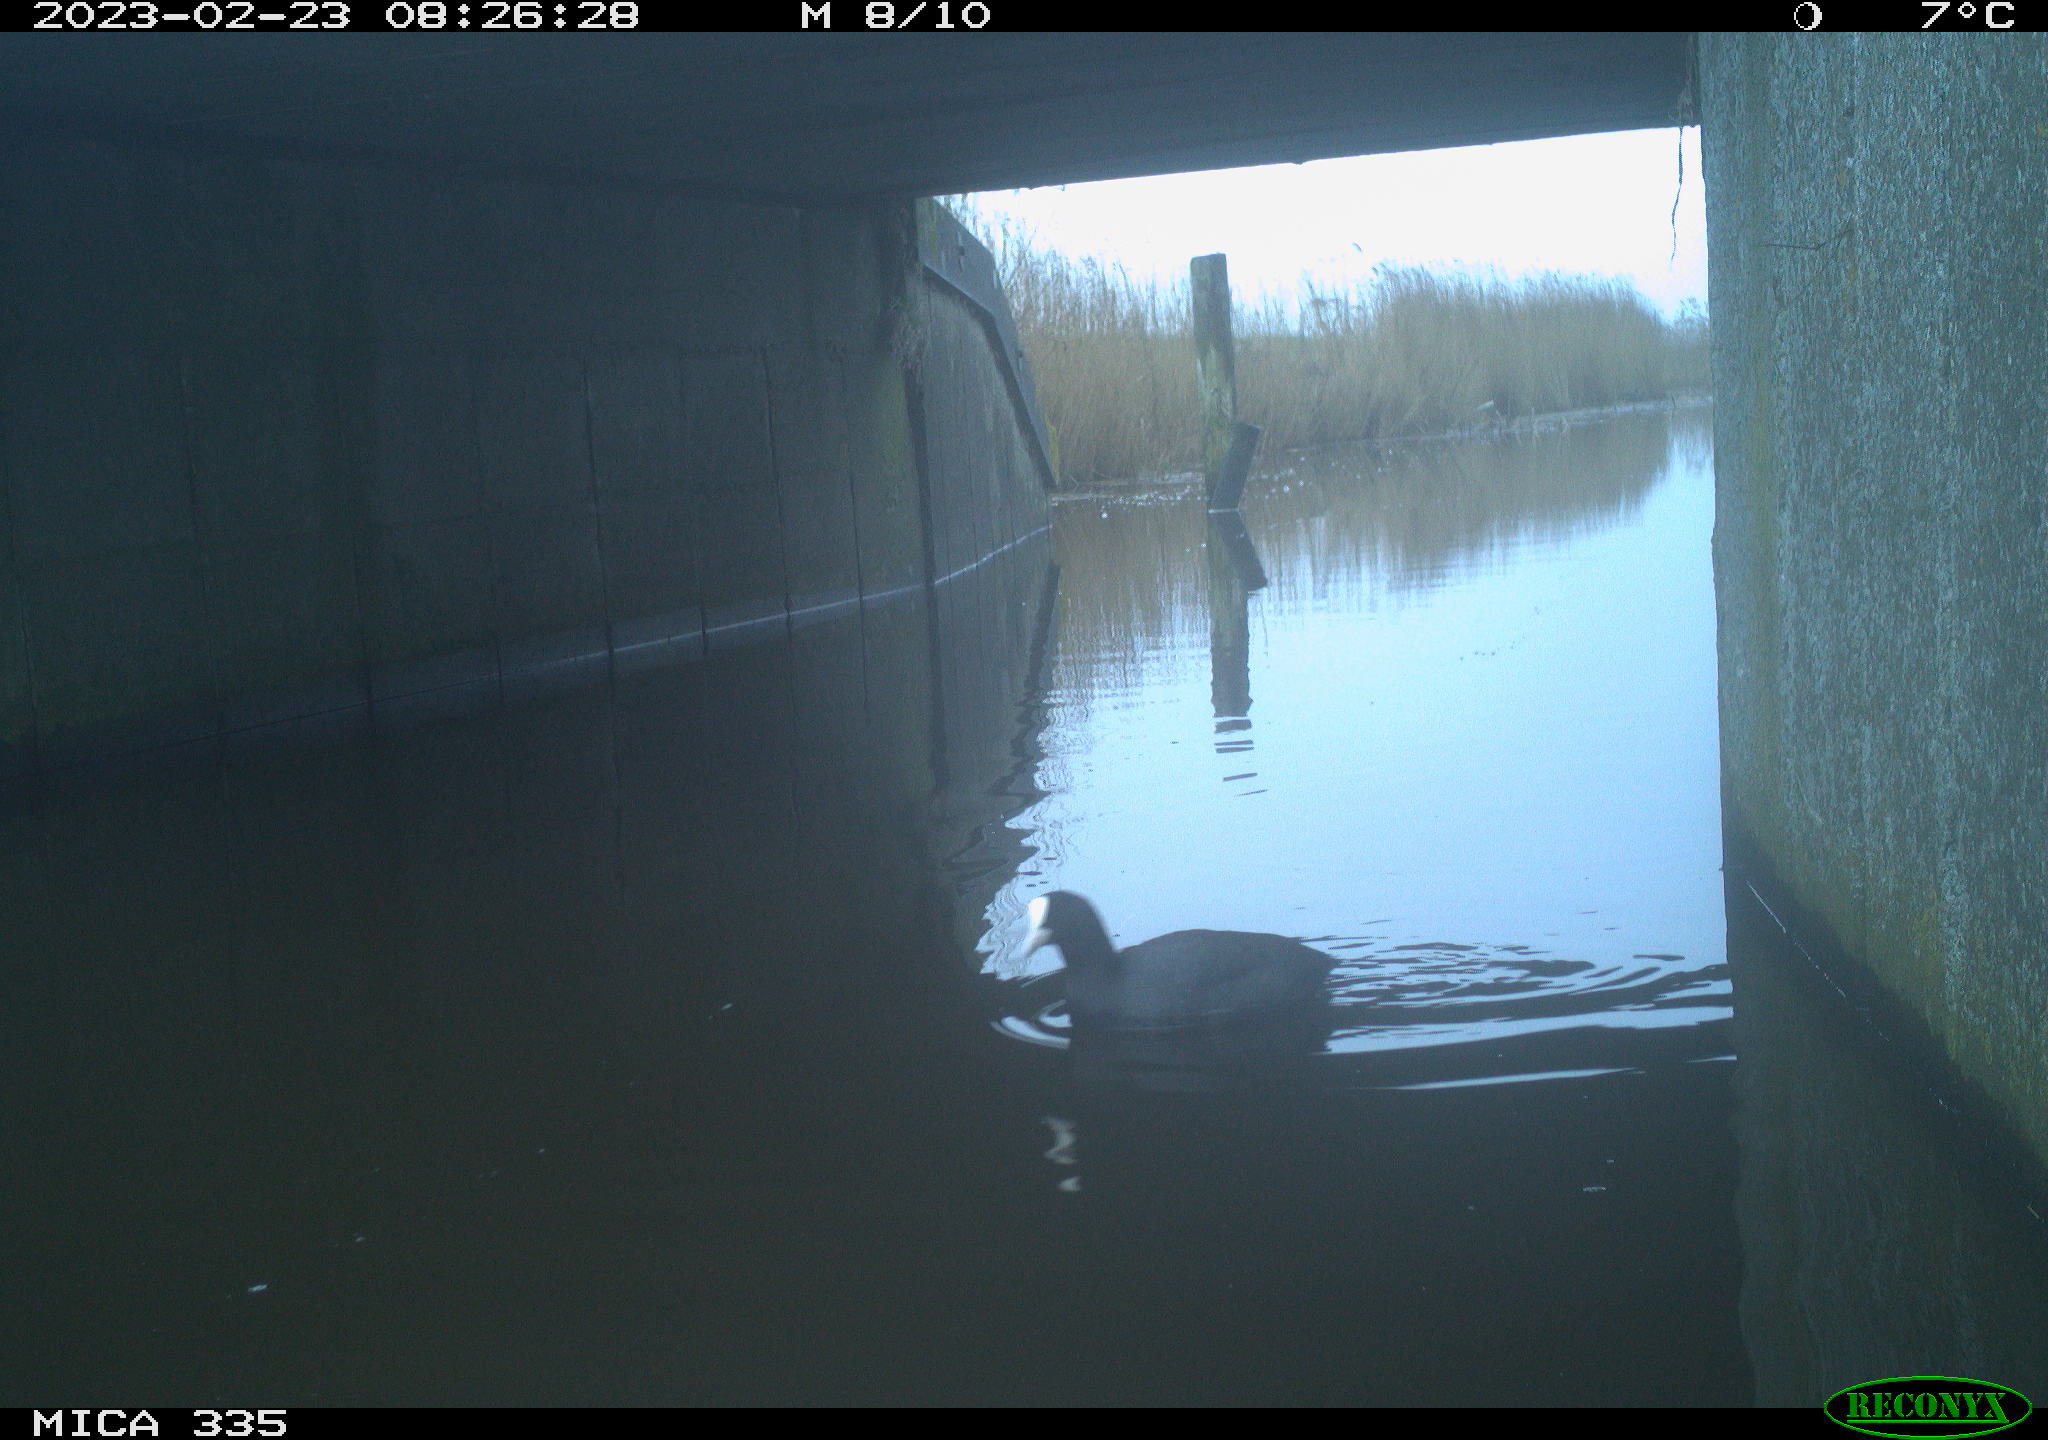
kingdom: Animalia
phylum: Chordata
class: Aves
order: Gruiformes
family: Rallidae
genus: Fulica
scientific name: Fulica atra
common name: Eurasian coot
